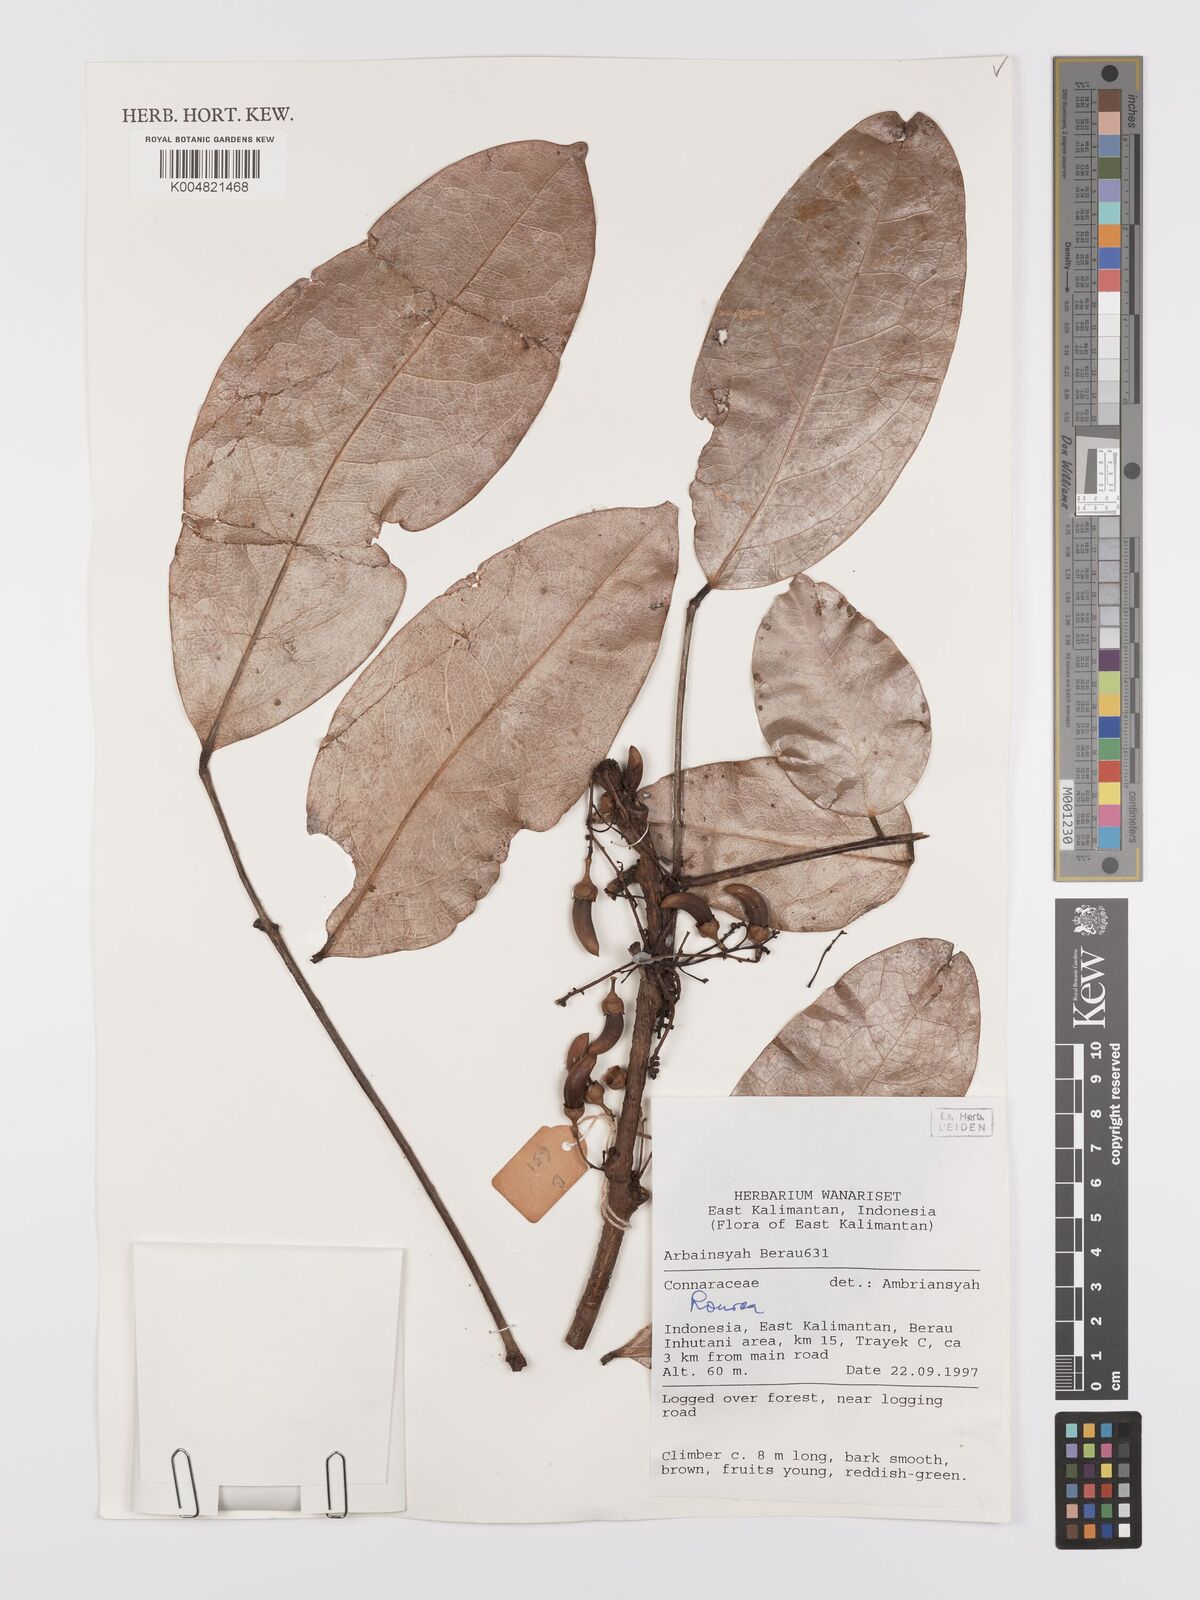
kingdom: Plantae
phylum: Tracheophyta
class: Magnoliopsida
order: Oxalidales
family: Connaraceae
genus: Rourea
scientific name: Rourea
